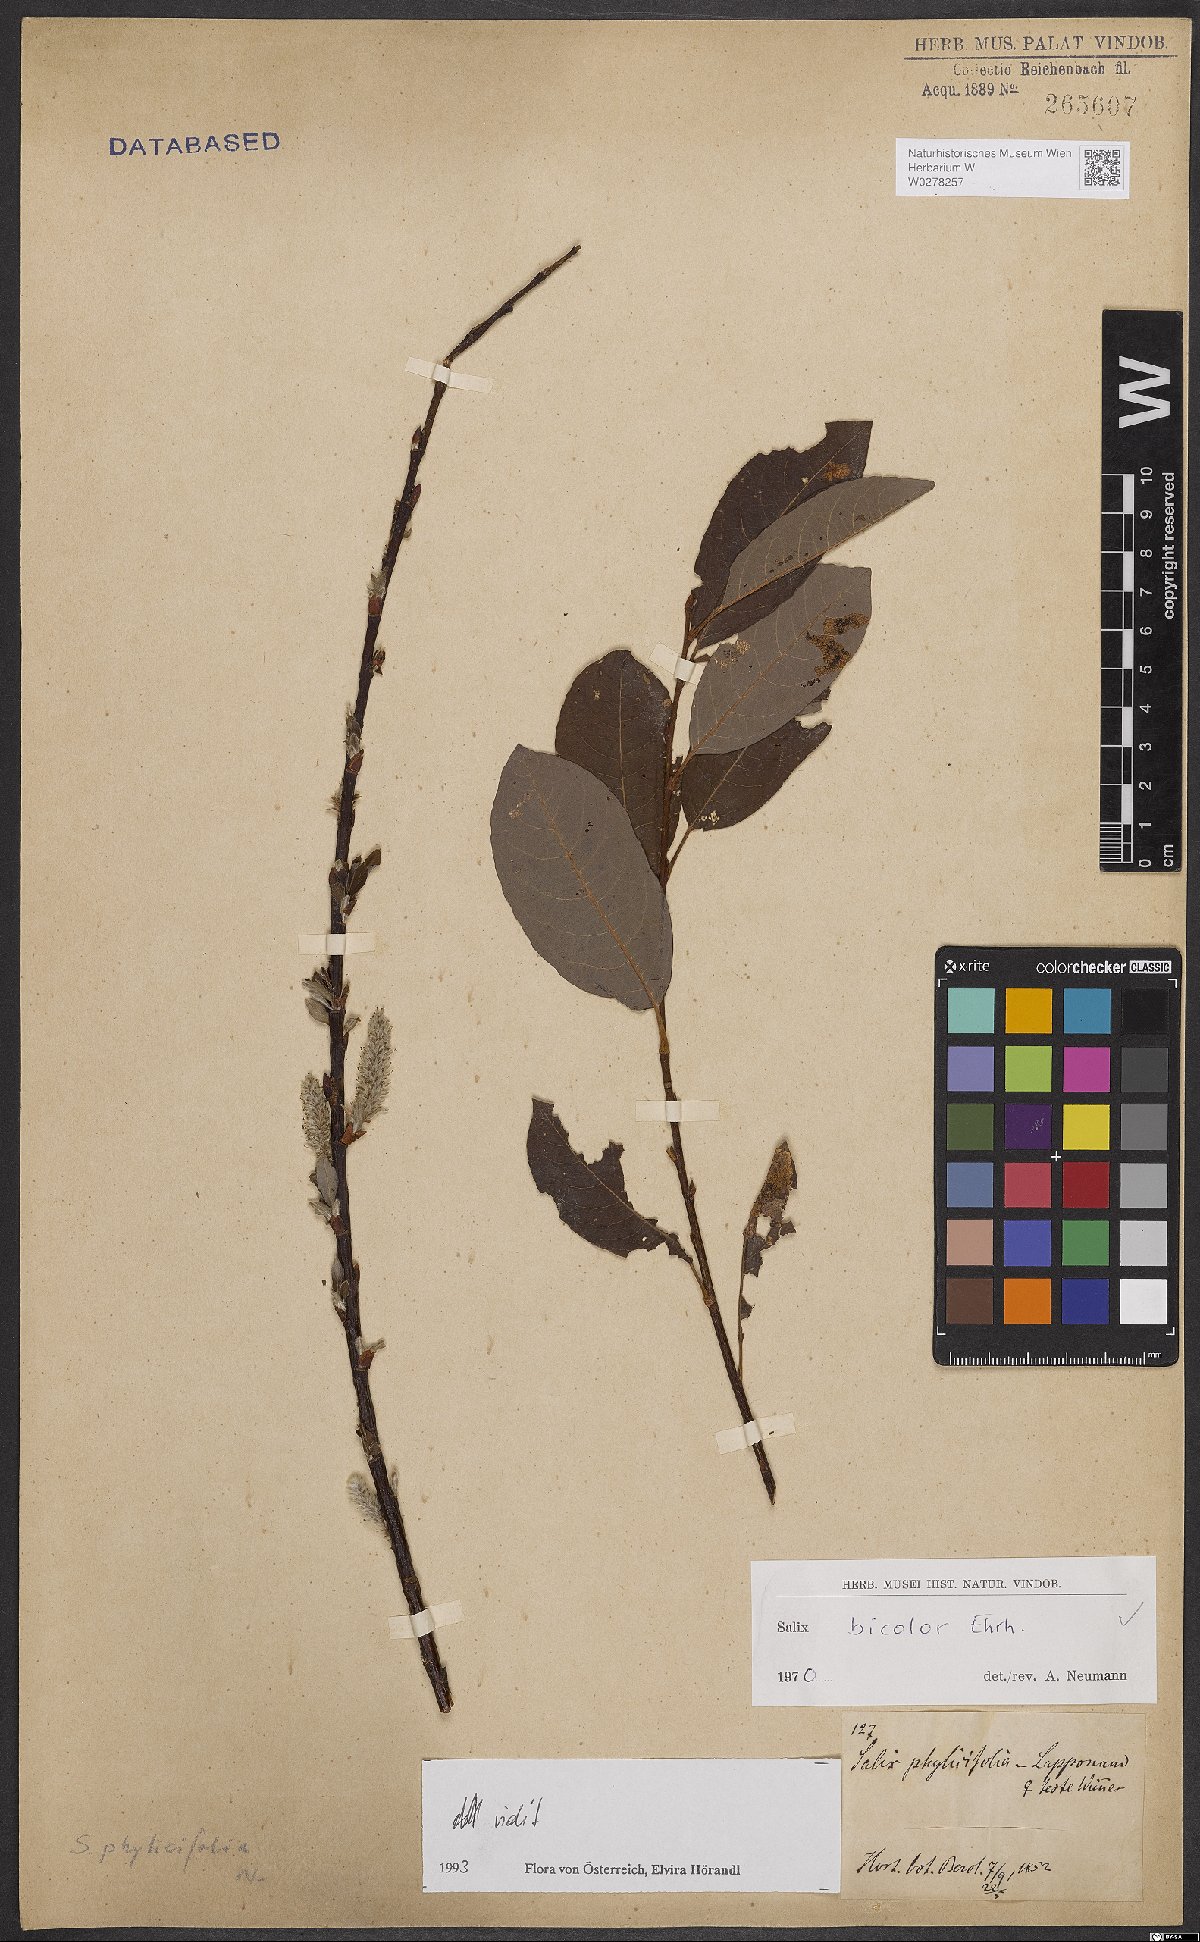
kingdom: Plantae
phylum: Tracheophyta
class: Magnoliopsida
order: Malpighiales
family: Salicaceae
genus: Salix
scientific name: Salix bicolor
